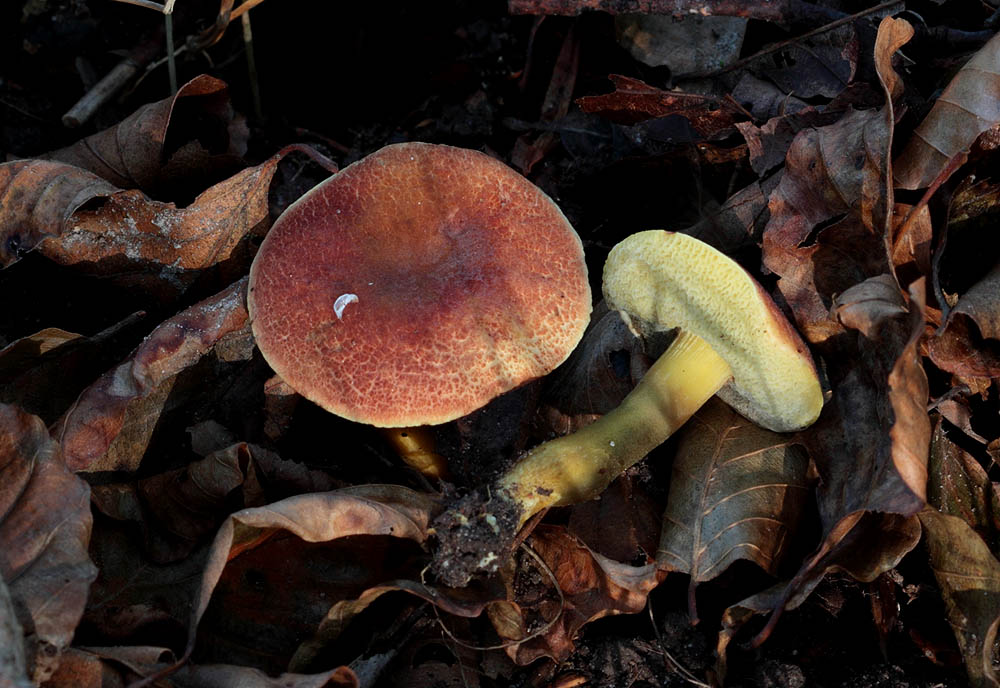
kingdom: Fungi
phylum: Basidiomycota
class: Agaricomycetes
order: Boletales
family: Boletaceae
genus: Hortiboletus
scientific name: Hortiboletus engelii
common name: fersken-rørhat
